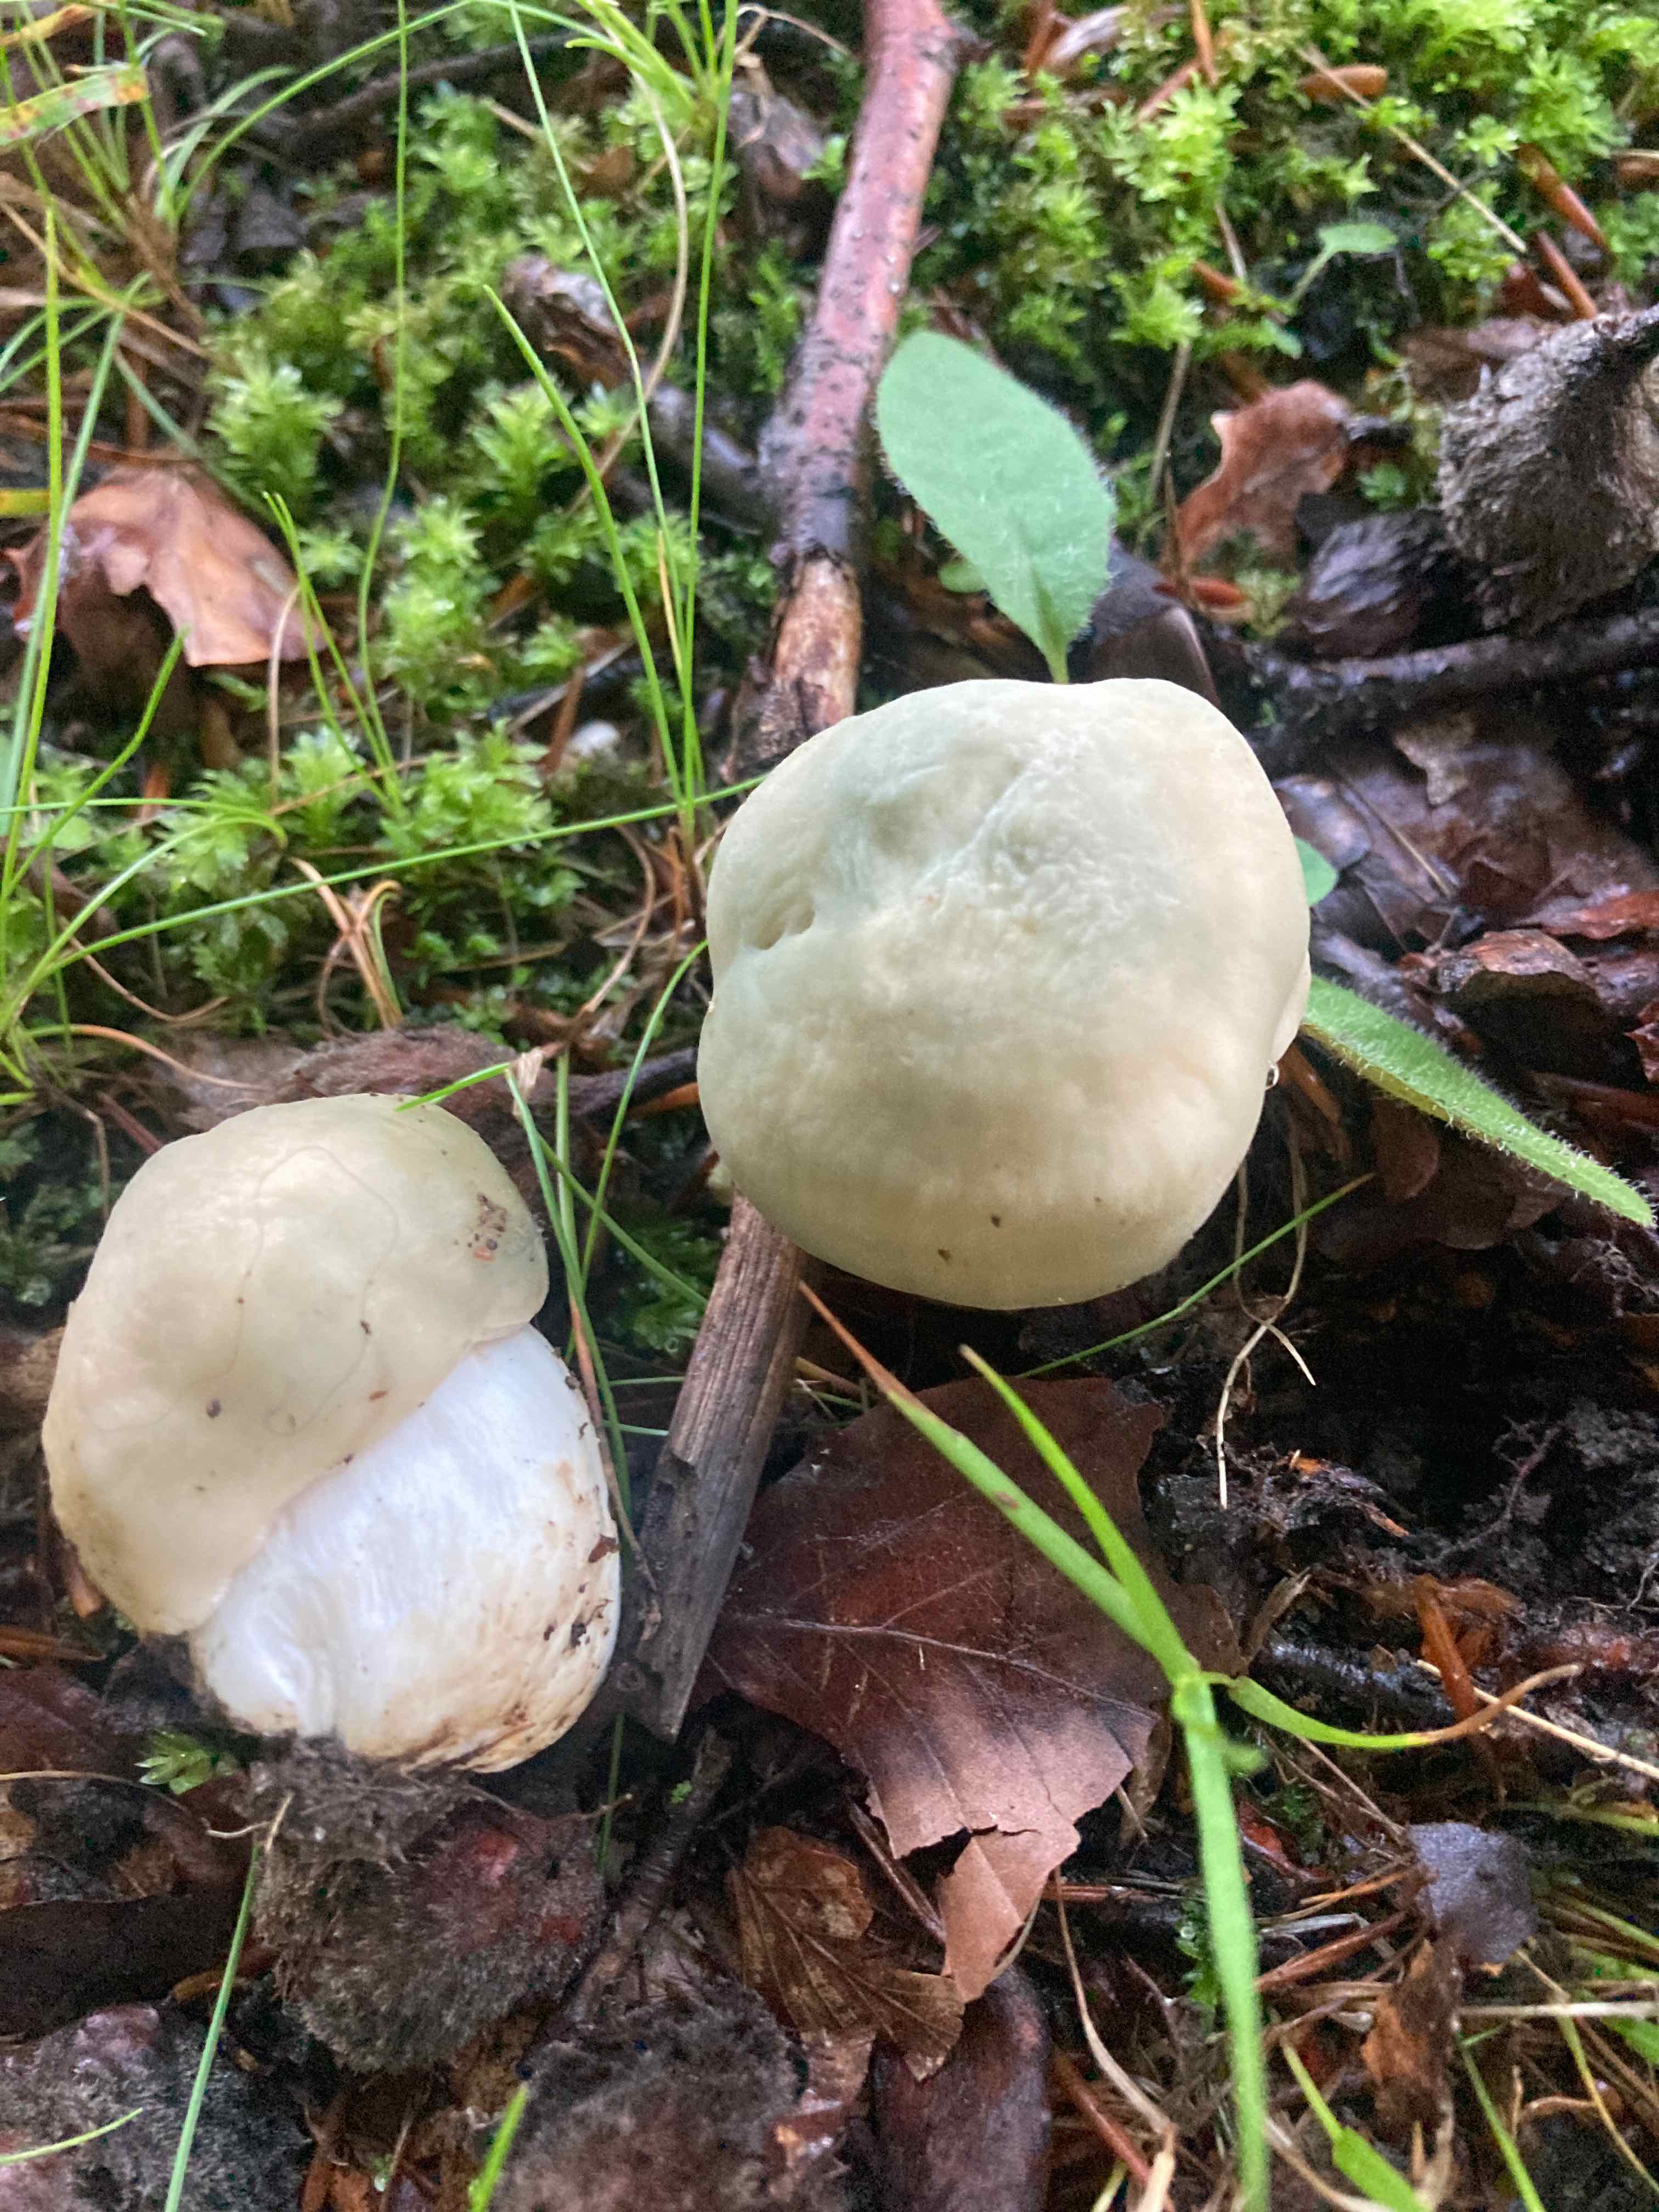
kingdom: Fungi
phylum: Basidiomycota
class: Agaricomycetes
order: Russulales
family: Russulaceae
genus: Russula
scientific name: Russula virescens
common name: spanskgrøn skørhat
